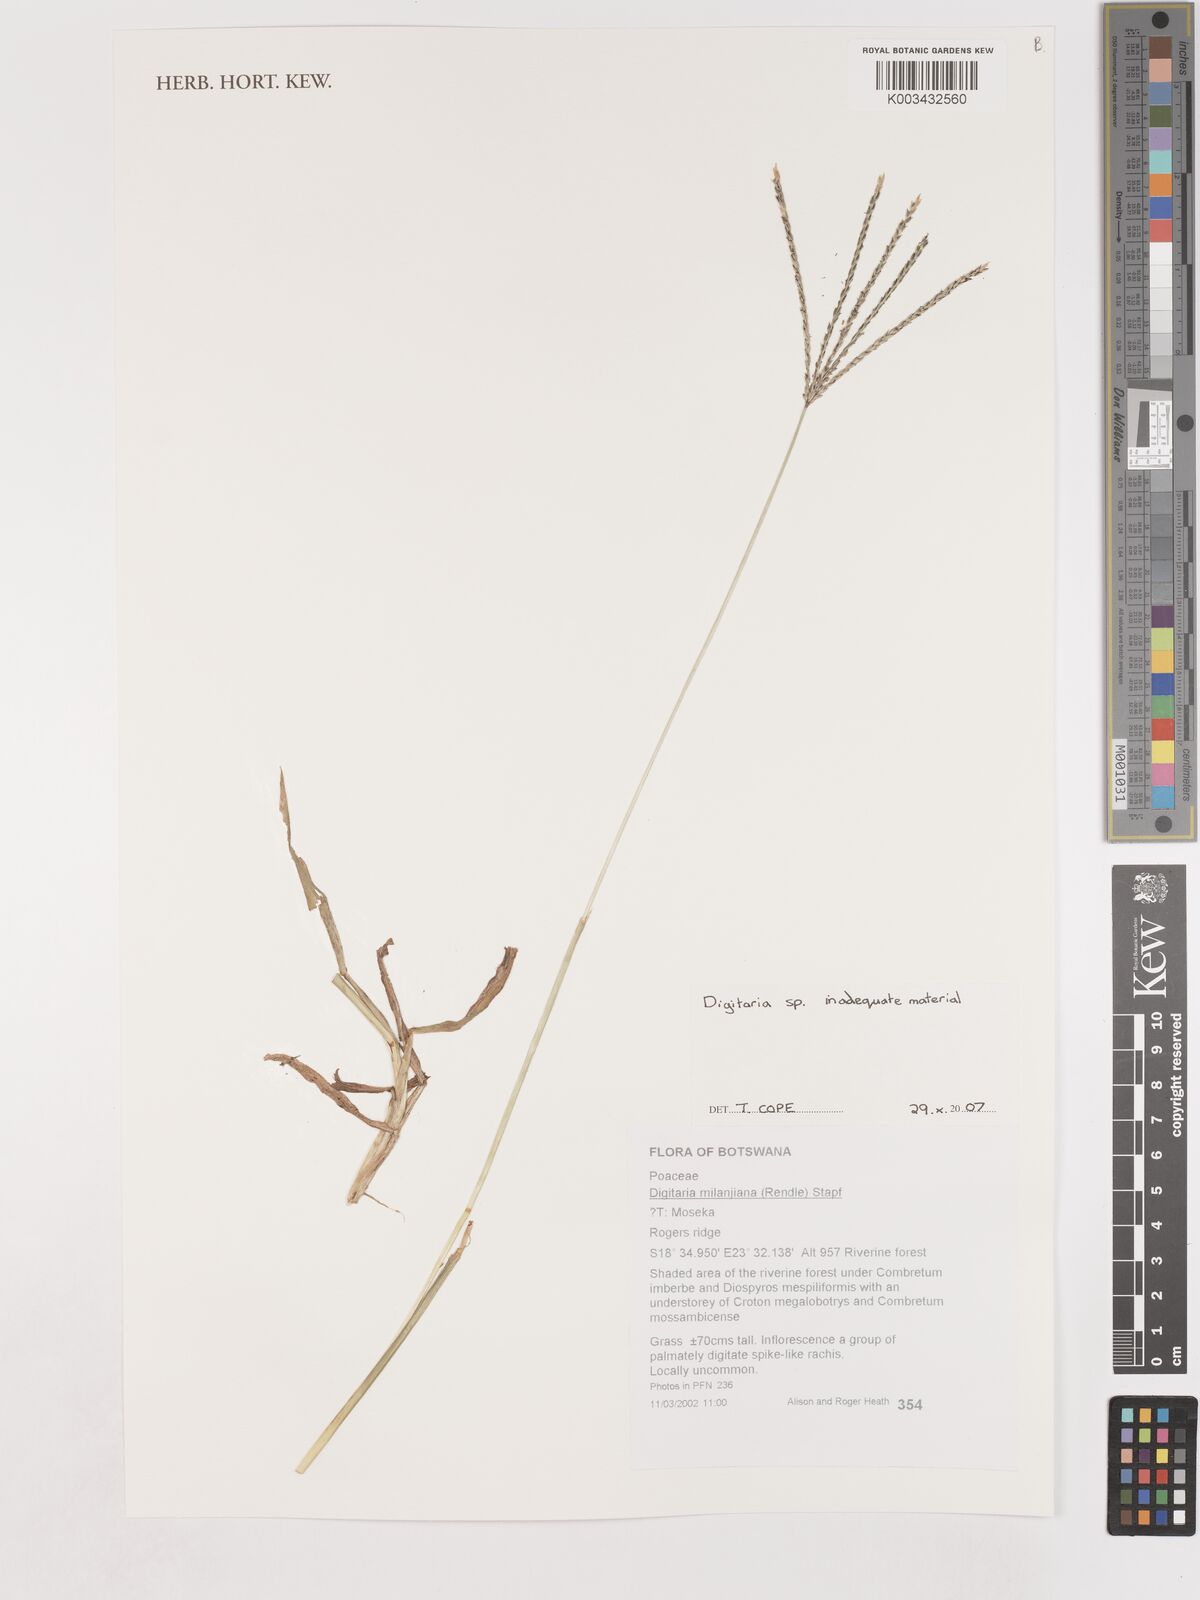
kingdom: Plantae
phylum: Tracheophyta
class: Liliopsida
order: Poales
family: Poaceae
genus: Digitaria
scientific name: Digitaria spec
